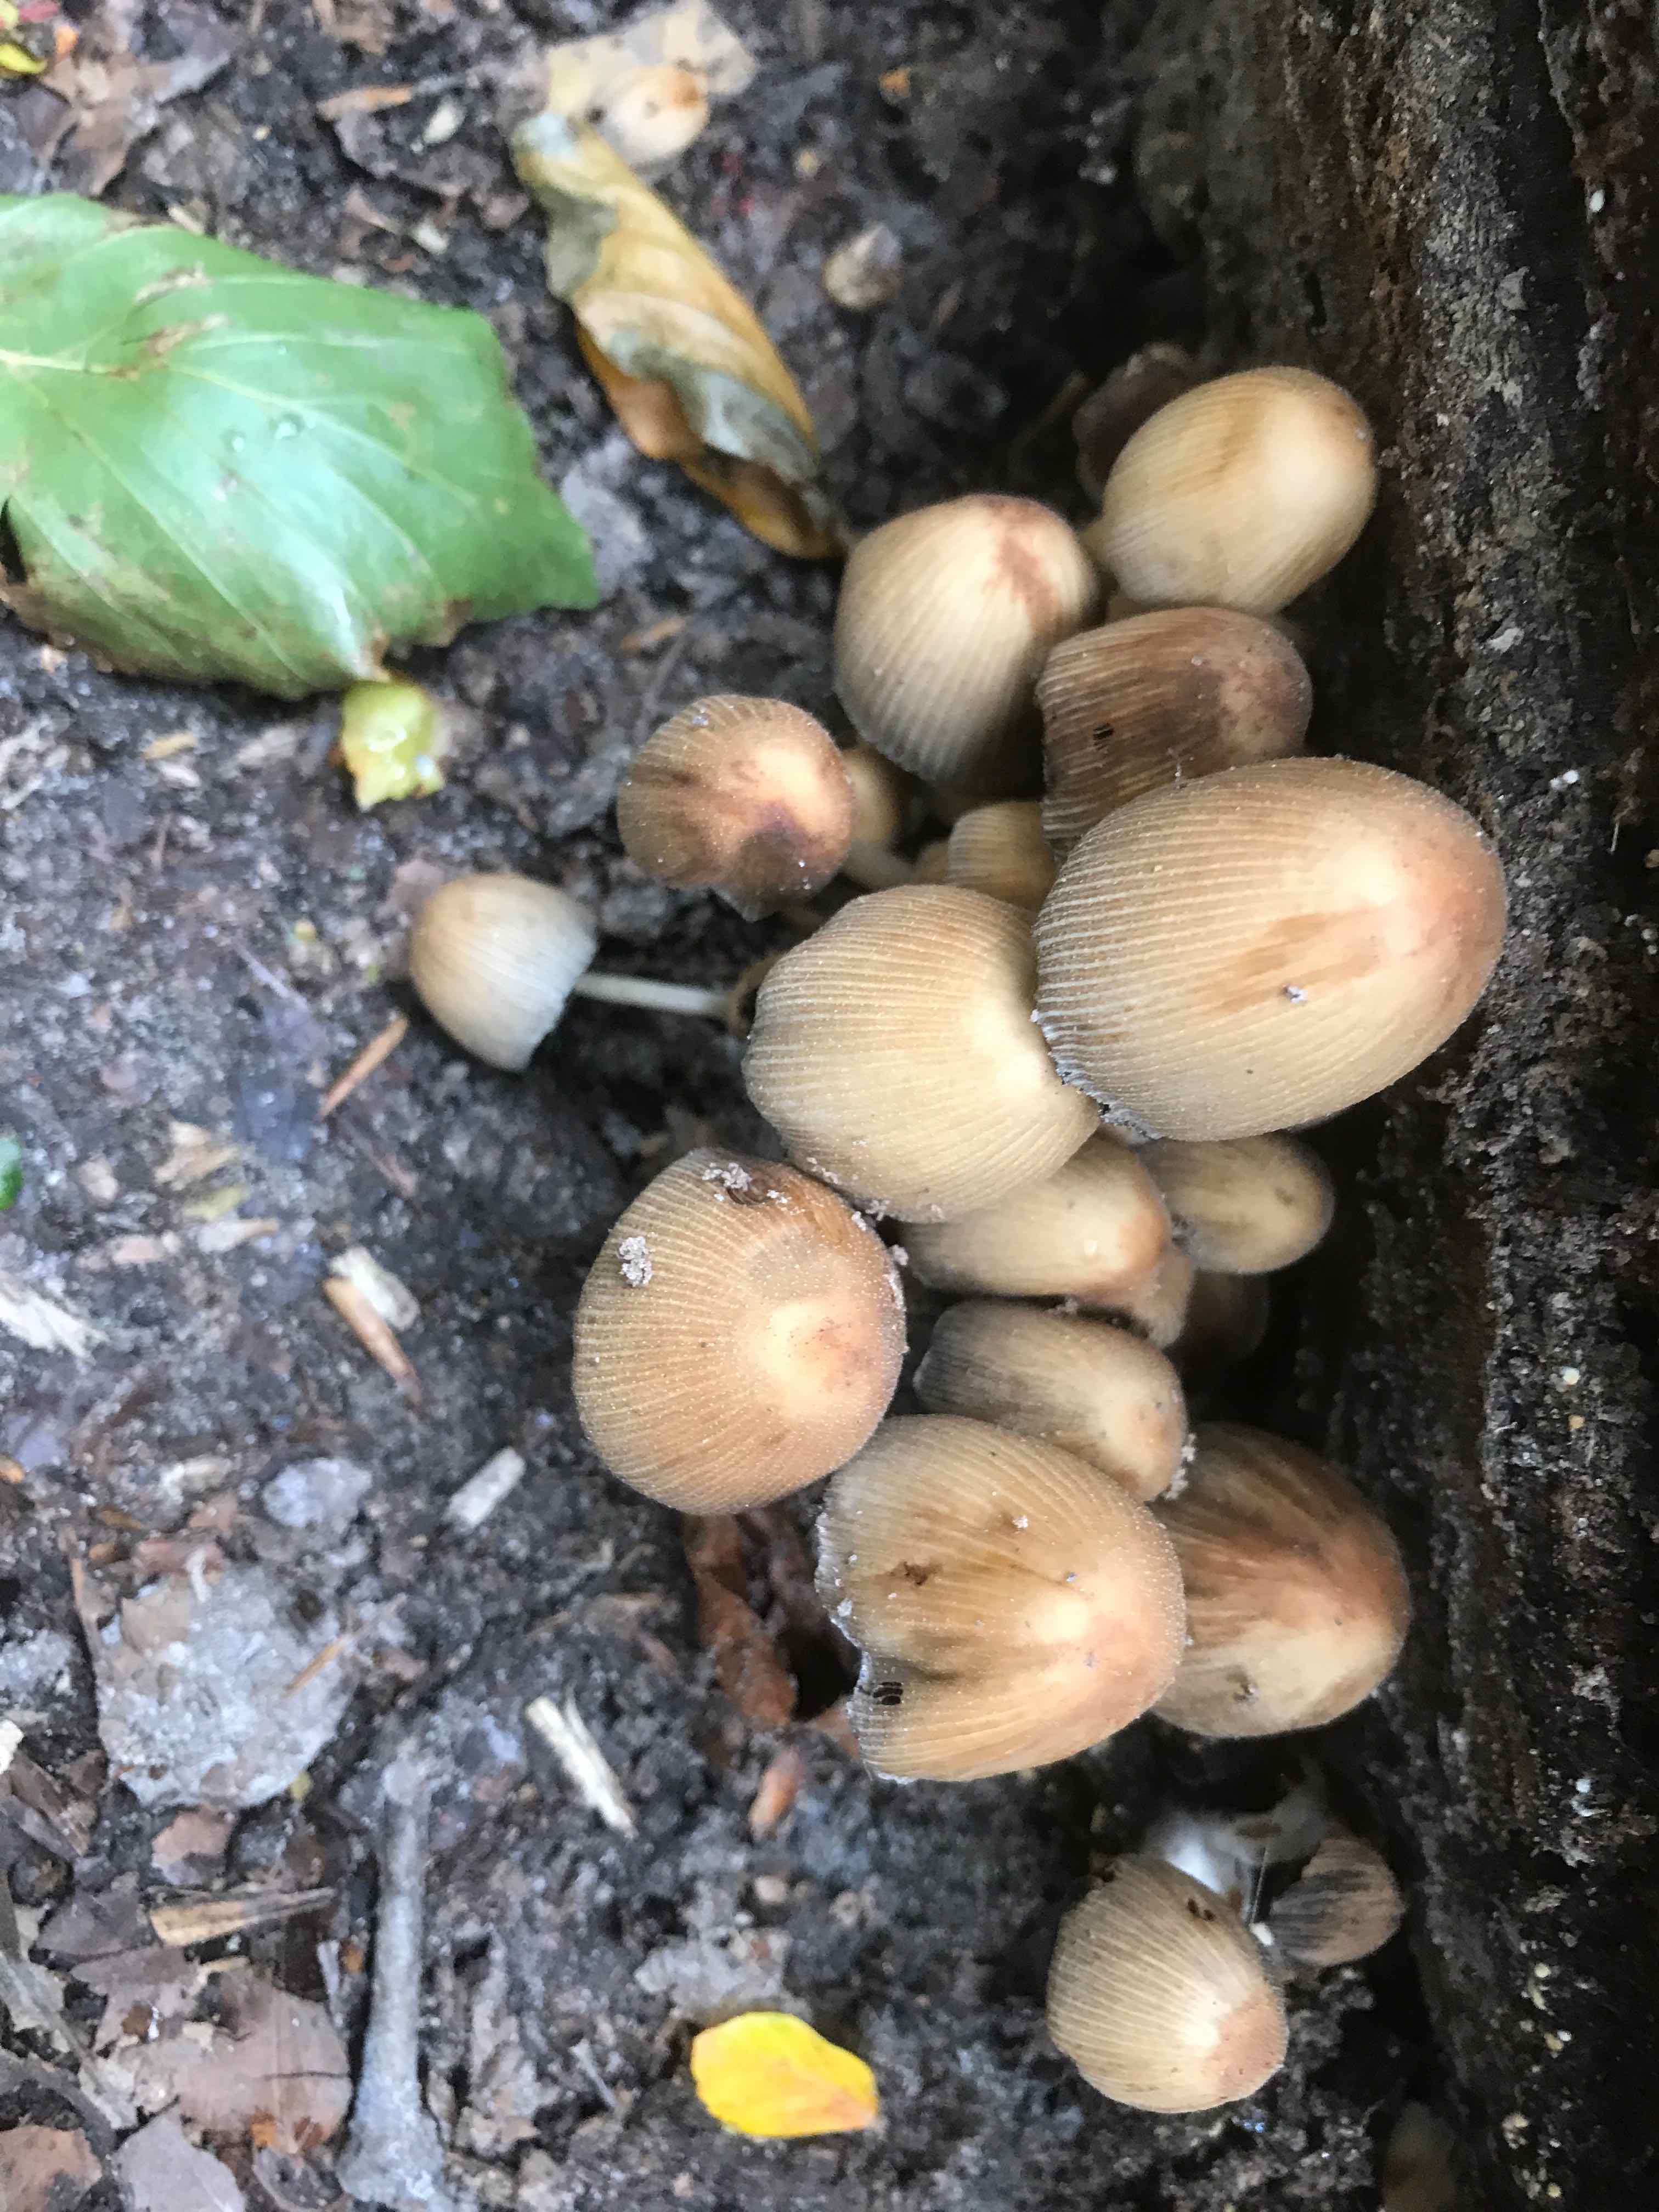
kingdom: Fungi
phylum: Basidiomycota
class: Agaricomycetes
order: Agaricales
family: Psathyrellaceae
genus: Coprinellus
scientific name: Coprinellus micaceus
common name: glimmer-blækhat
